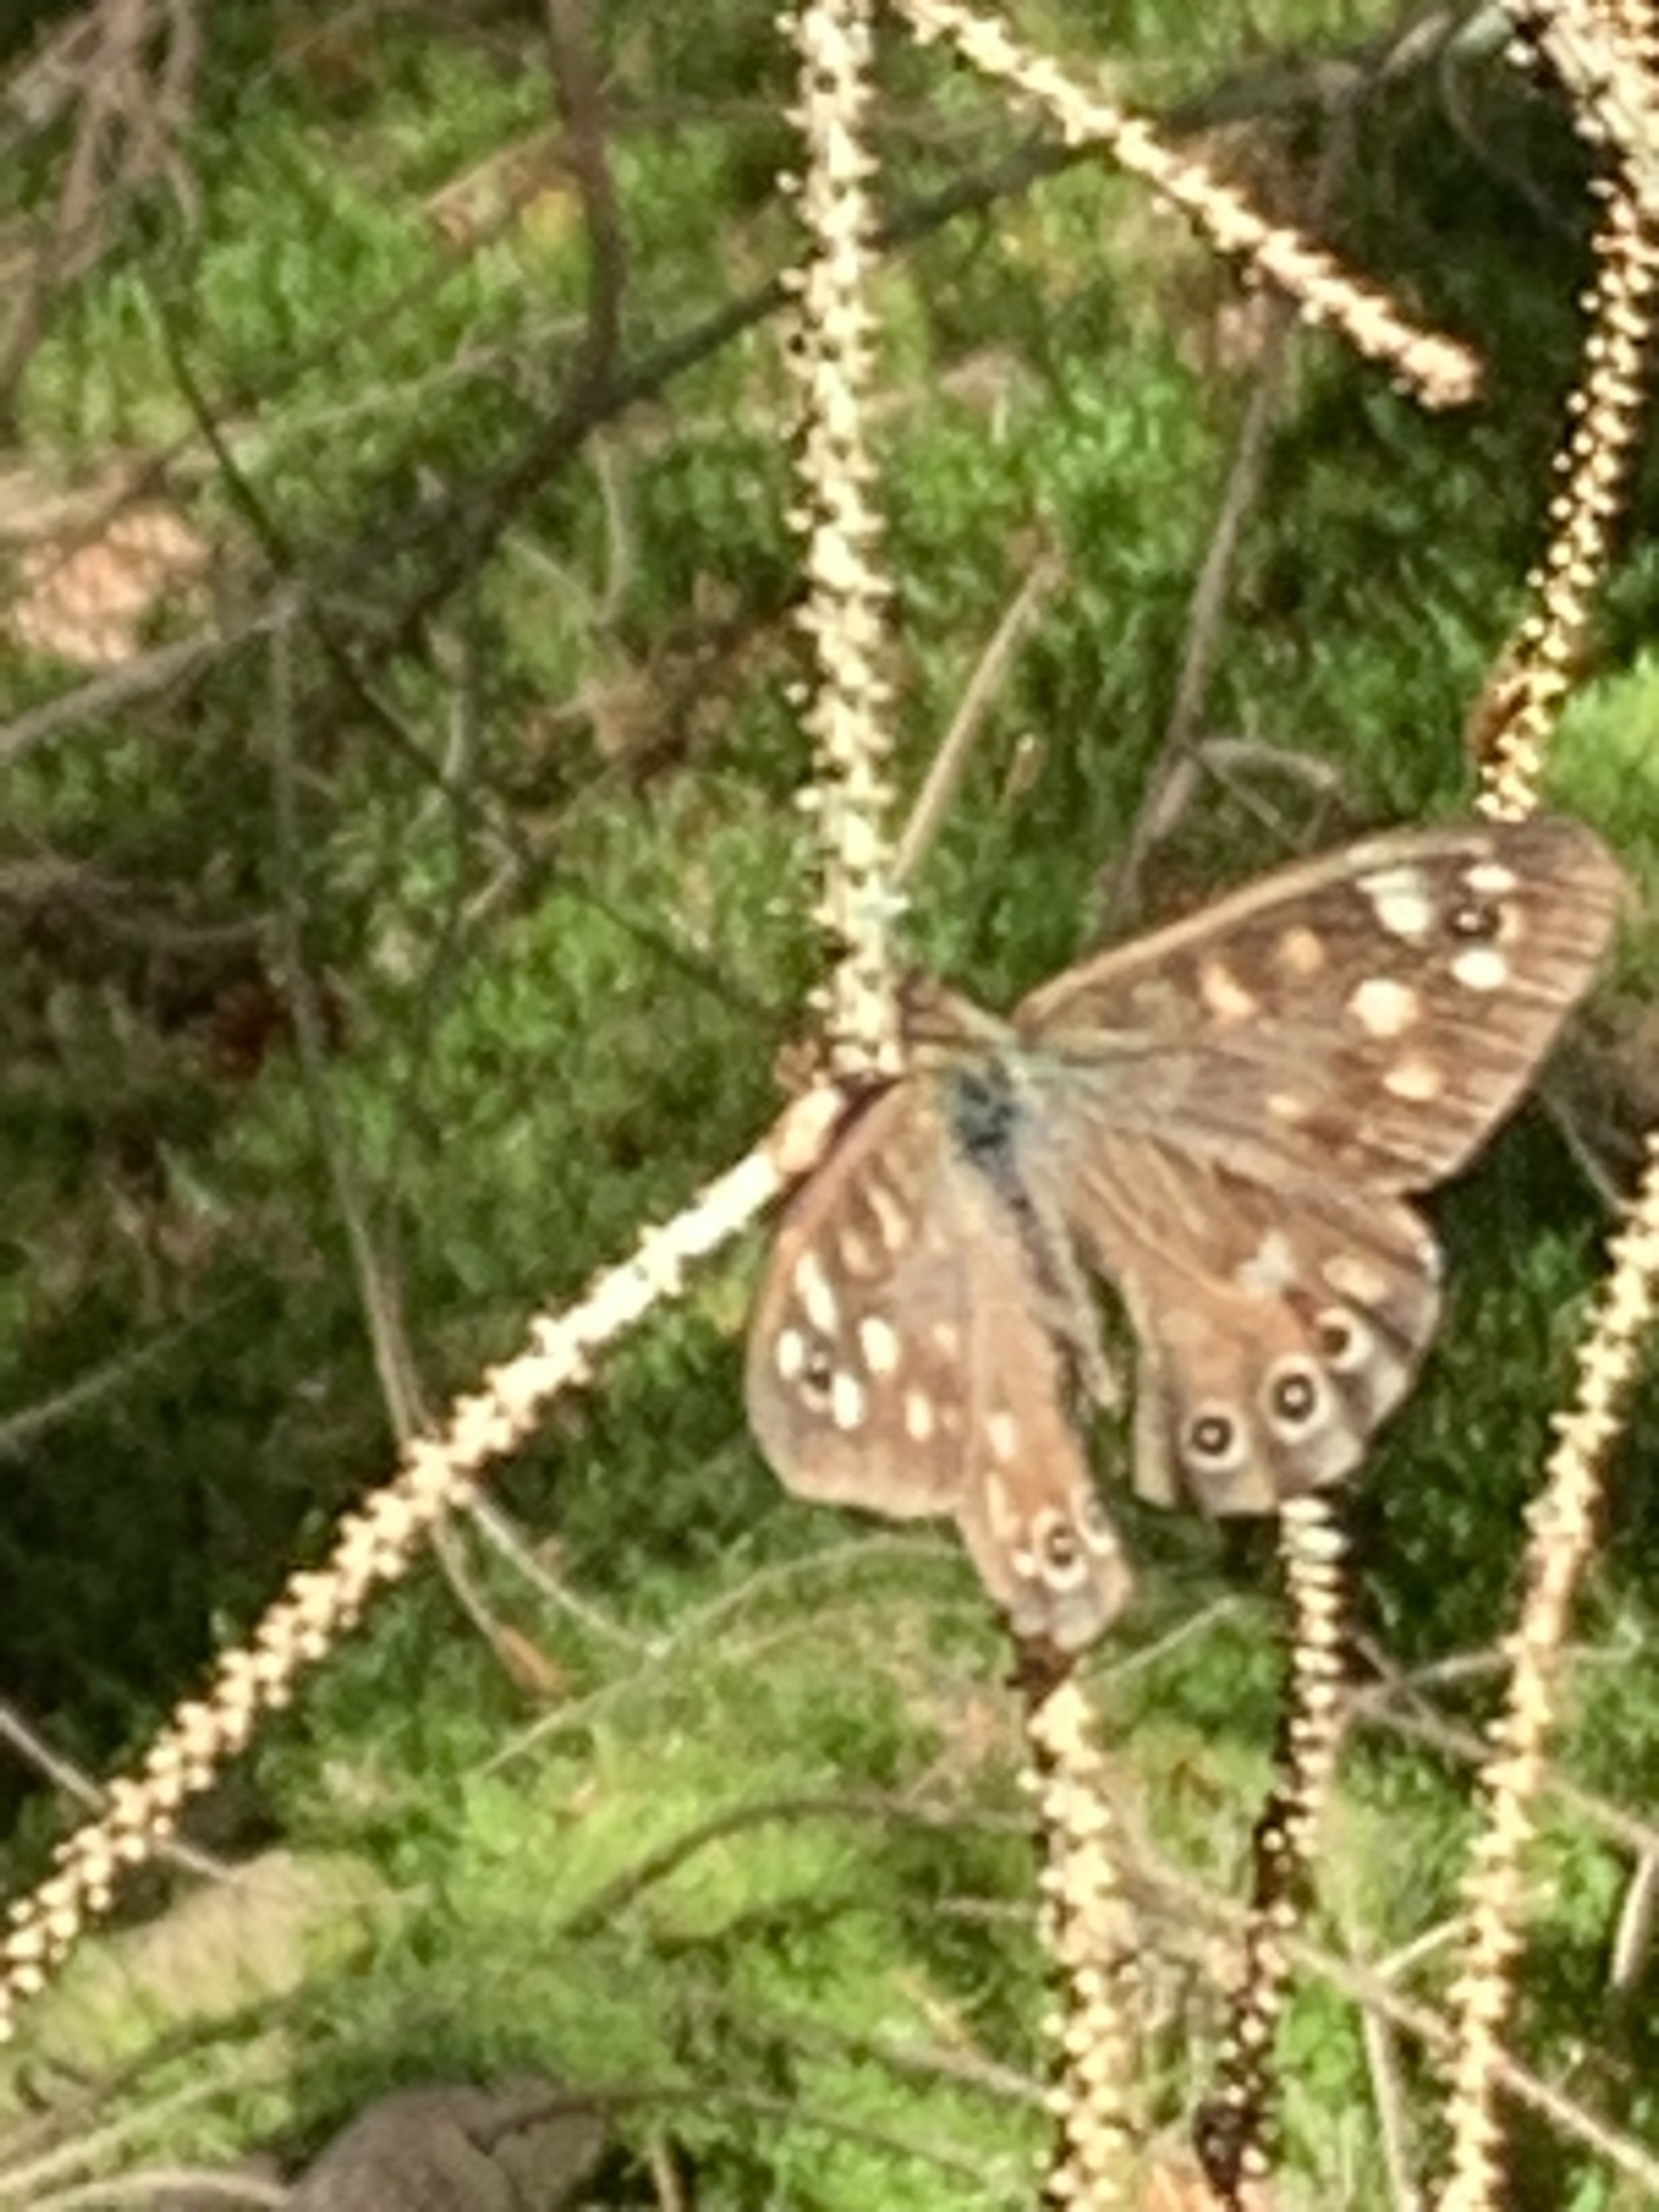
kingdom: Animalia
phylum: Arthropoda
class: Insecta
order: Lepidoptera
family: Nymphalidae
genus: Pararge
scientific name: Pararge aegeria
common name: Skovrandøje
